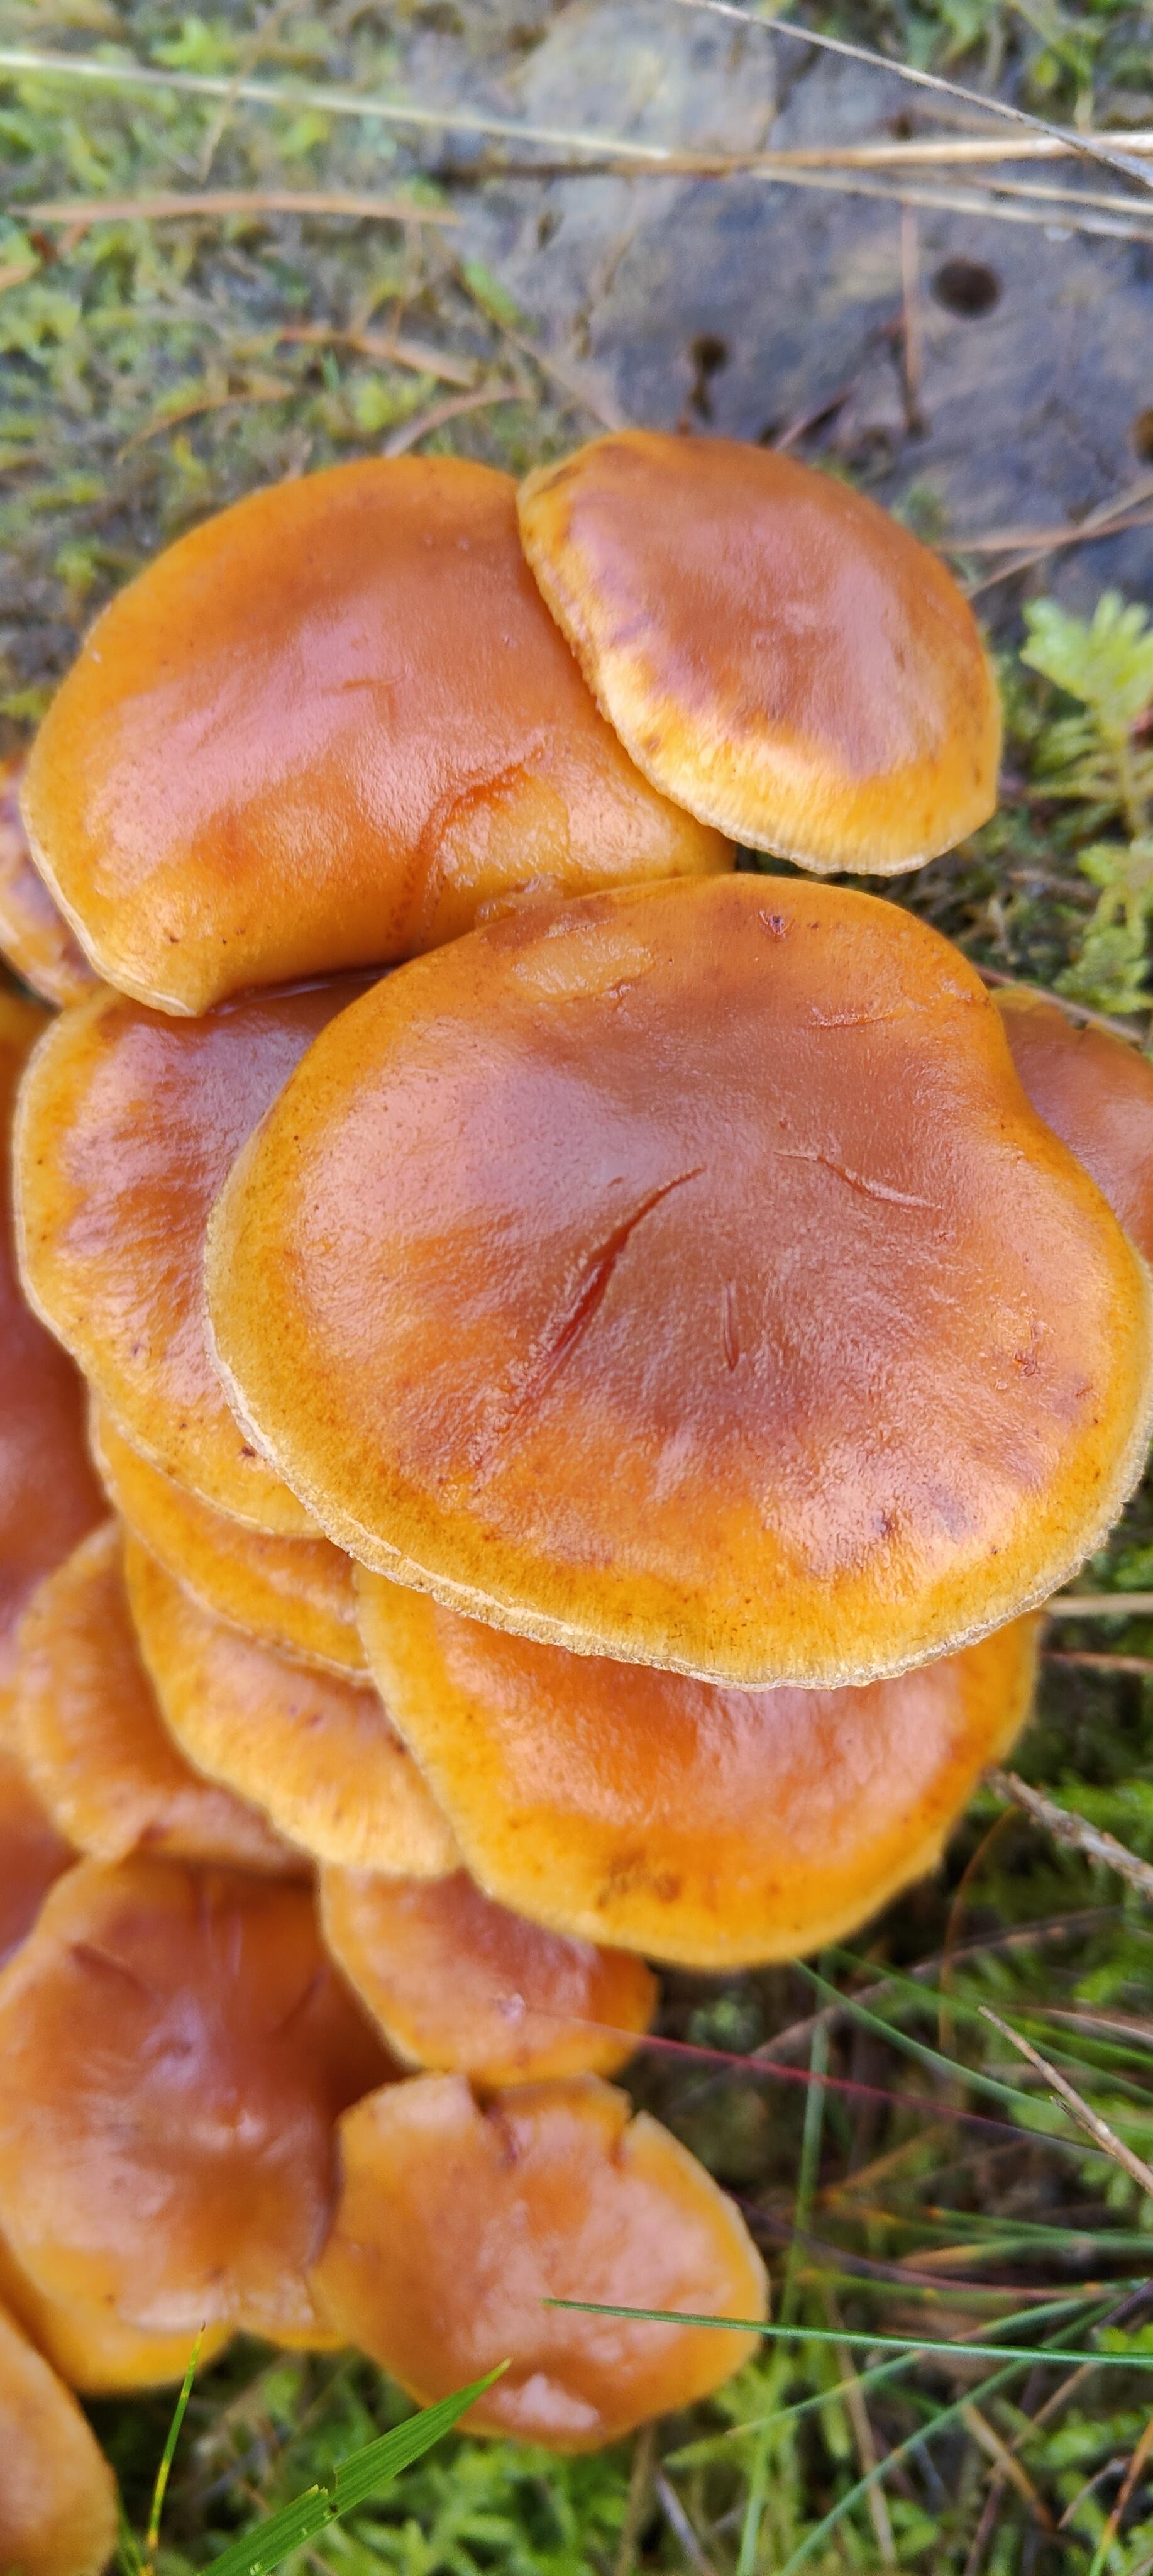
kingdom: Fungi
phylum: Basidiomycota
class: Agaricomycetes
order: Agaricales
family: Hymenogastraceae
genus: Gymnopilus
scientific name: Gymnopilus penetrans
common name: plettet flammehat
